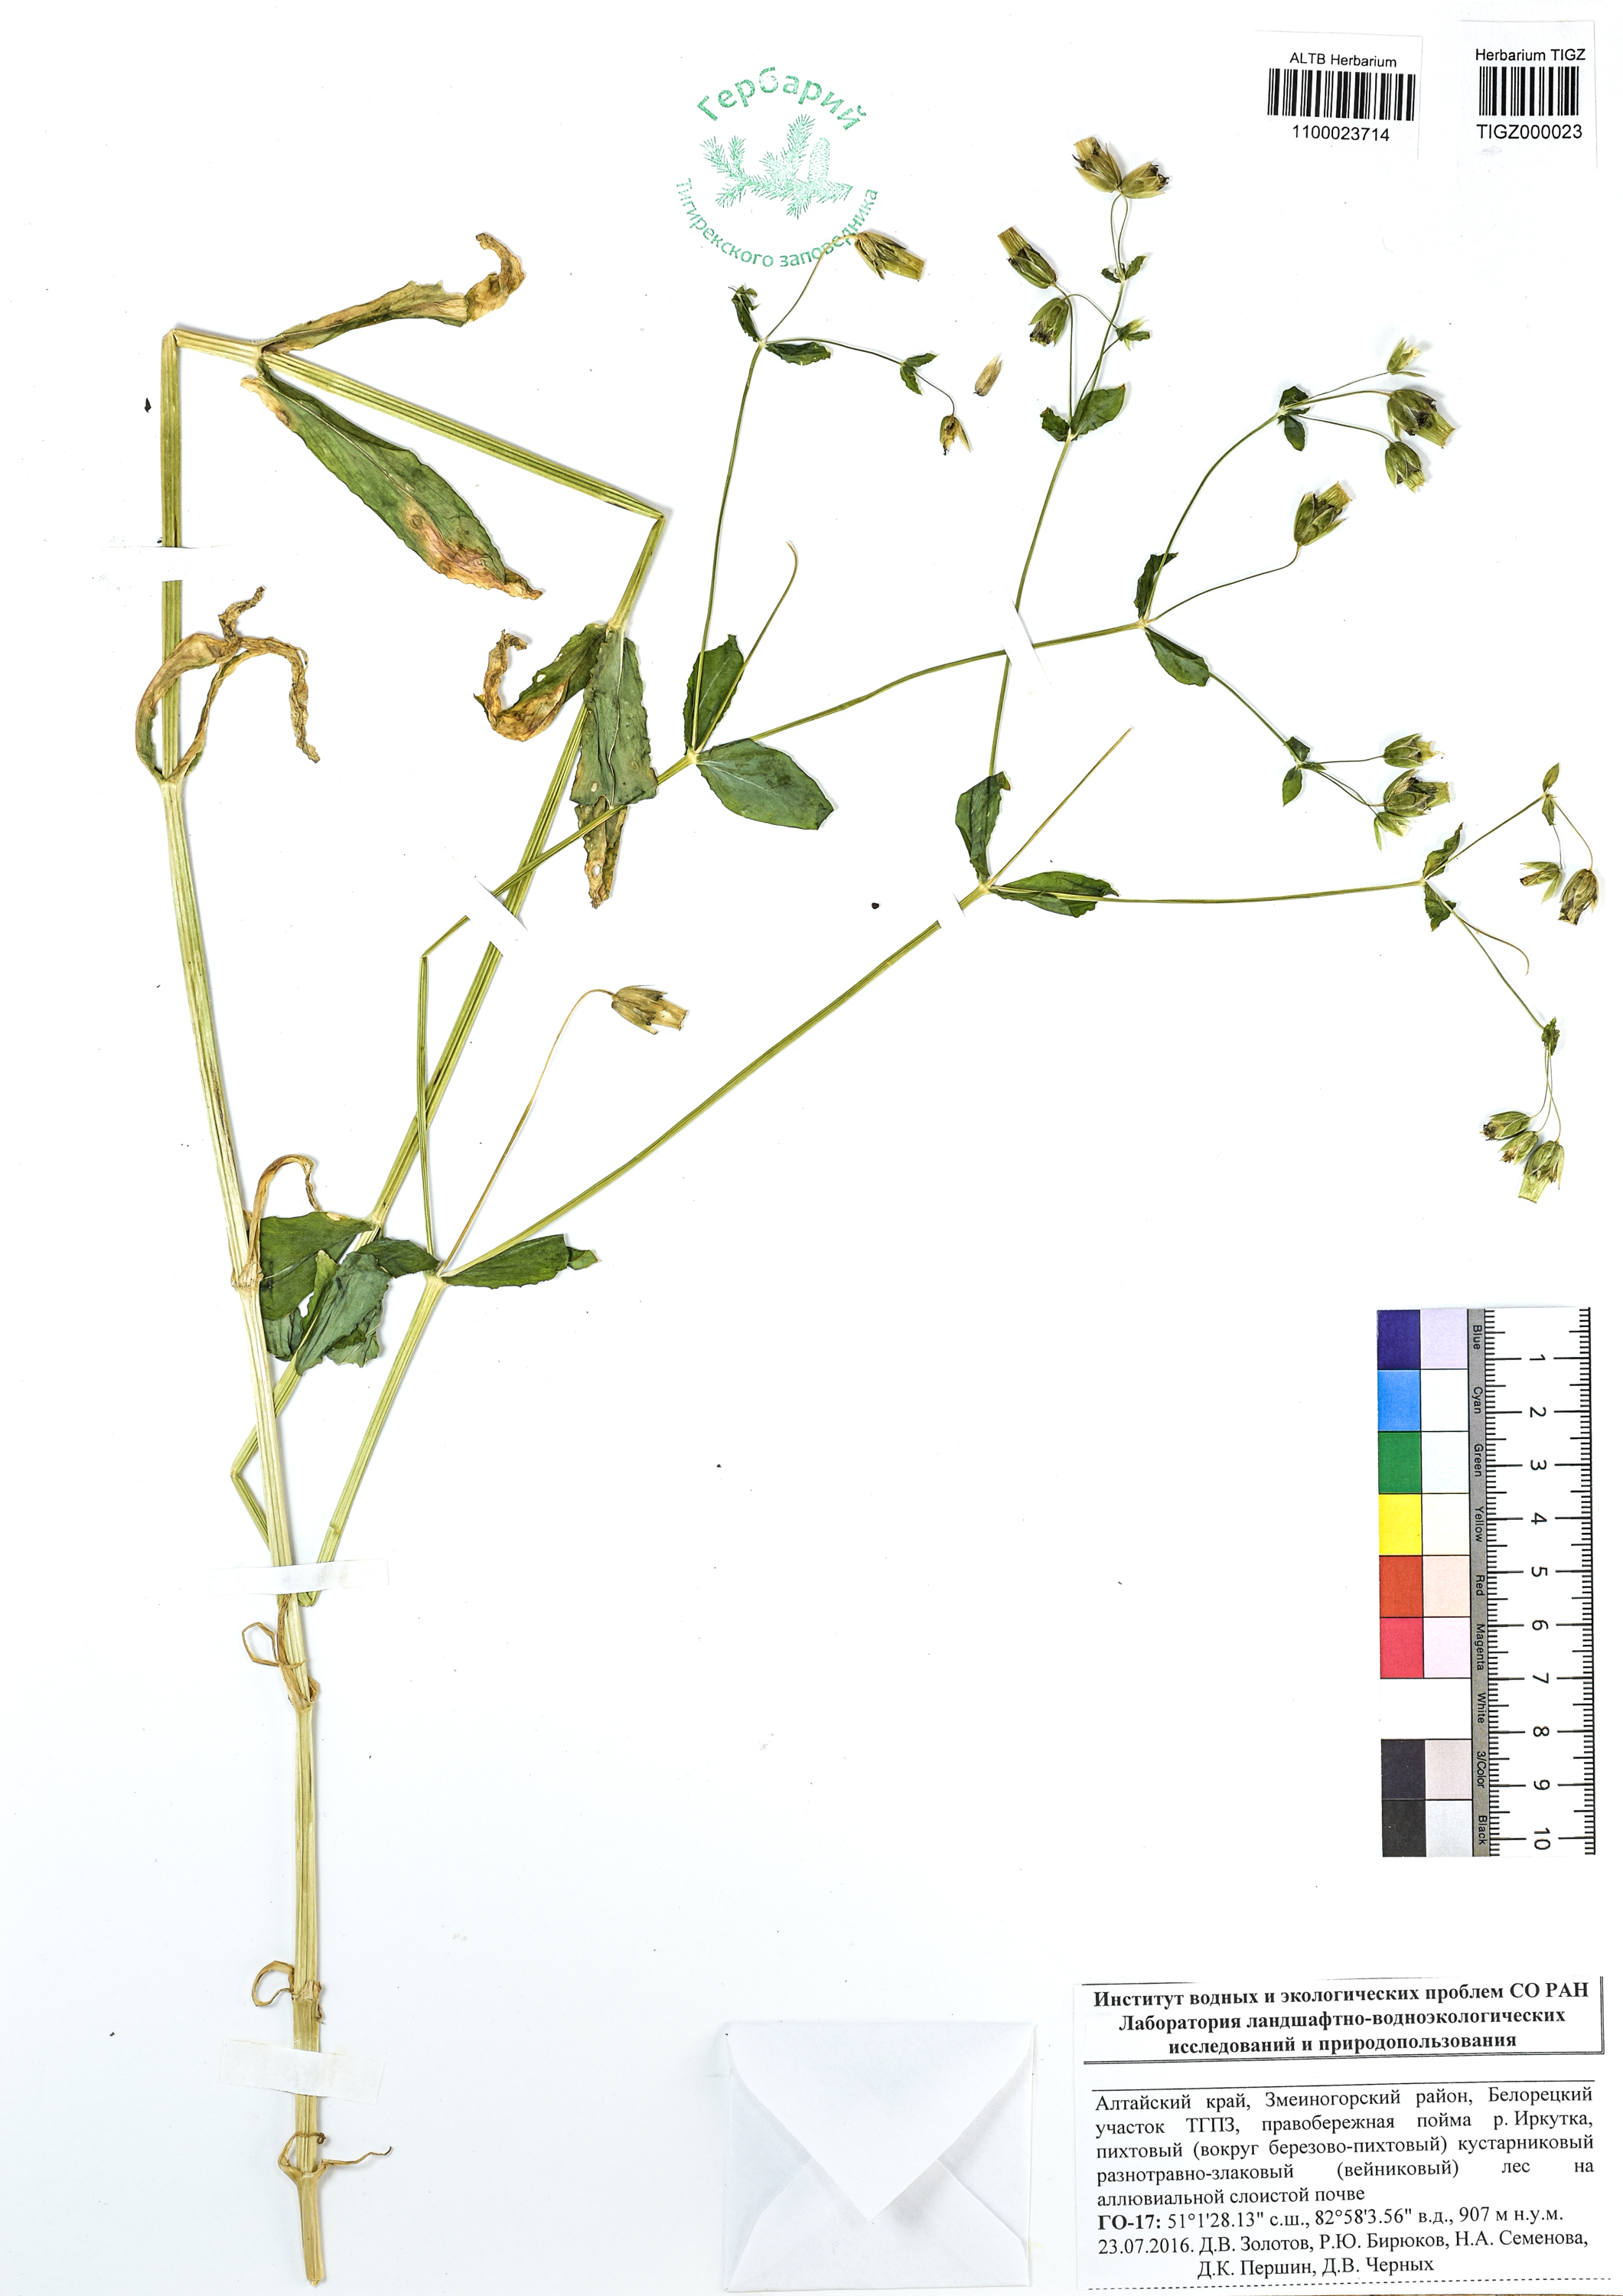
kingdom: Plantae
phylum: Tracheophyta
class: Magnoliopsida
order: Caryophyllales
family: Caryophyllaceae
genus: Dichodon
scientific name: Dichodon davuricum
